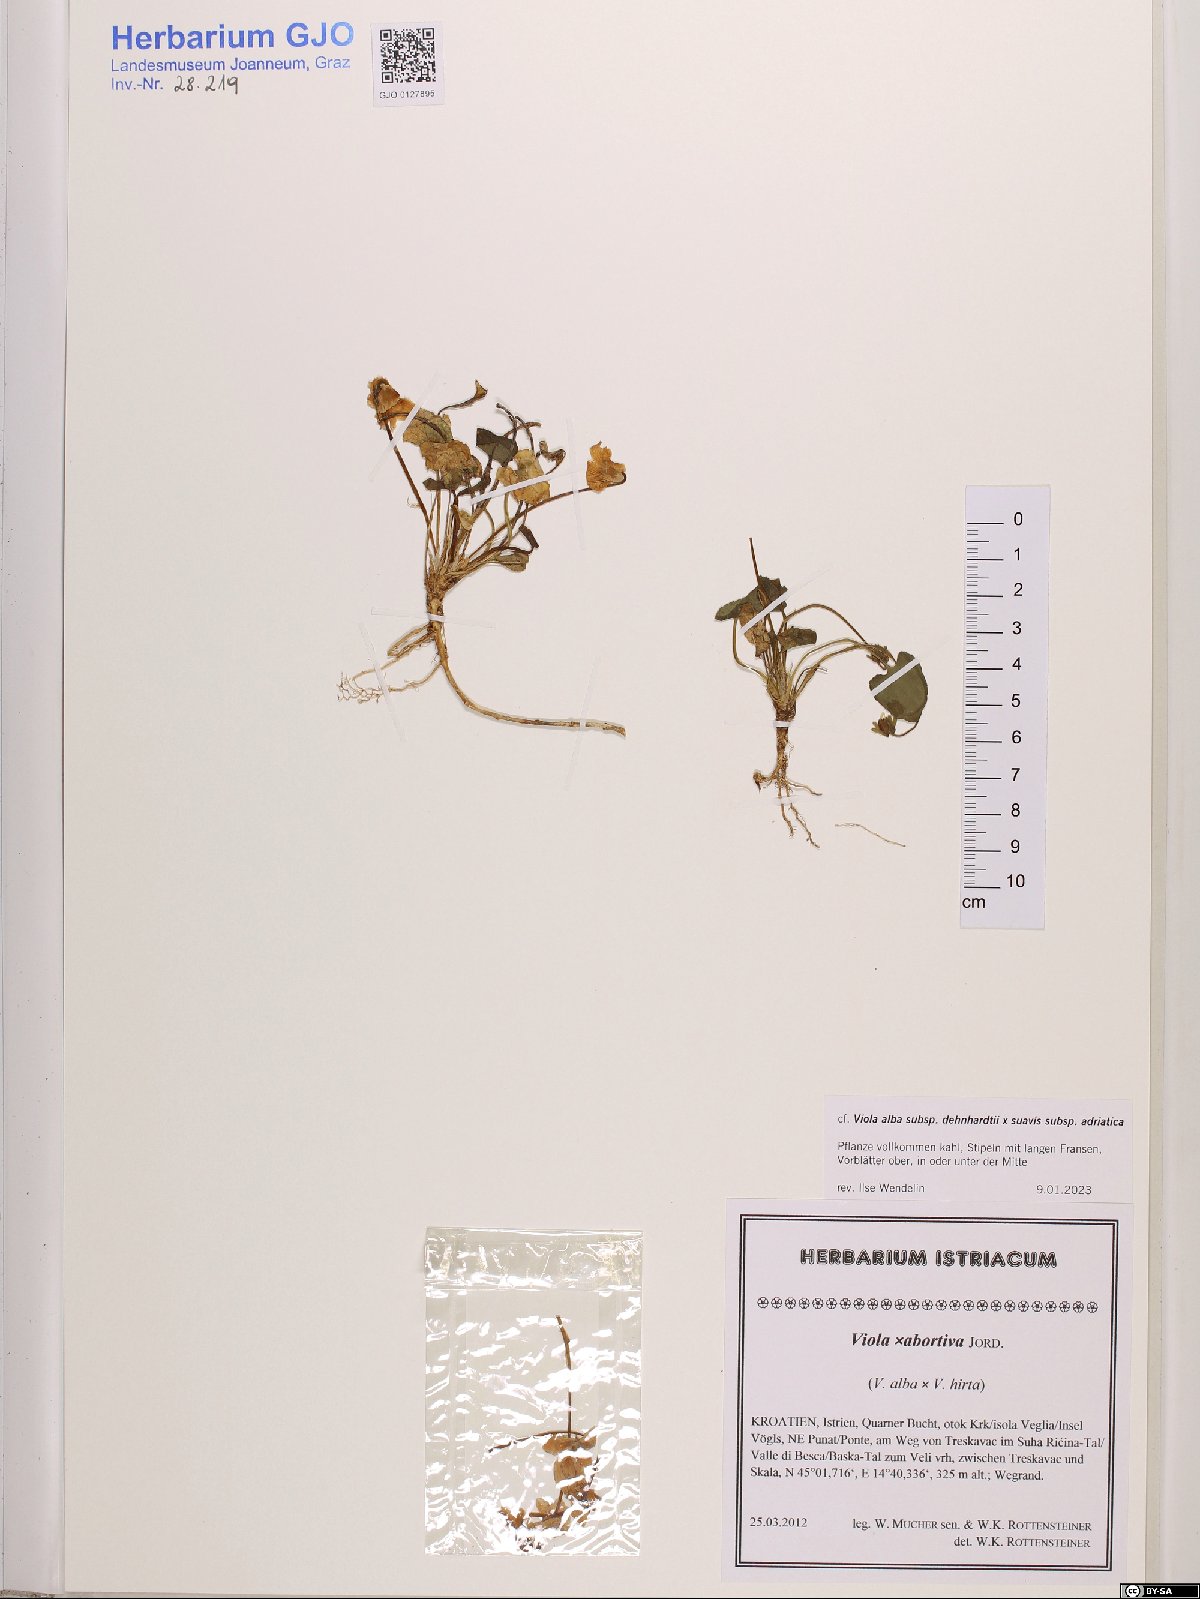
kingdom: Plantae
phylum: Tracheophyta
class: Magnoliopsida
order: Malpighiales
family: Violaceae
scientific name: Violaceae
